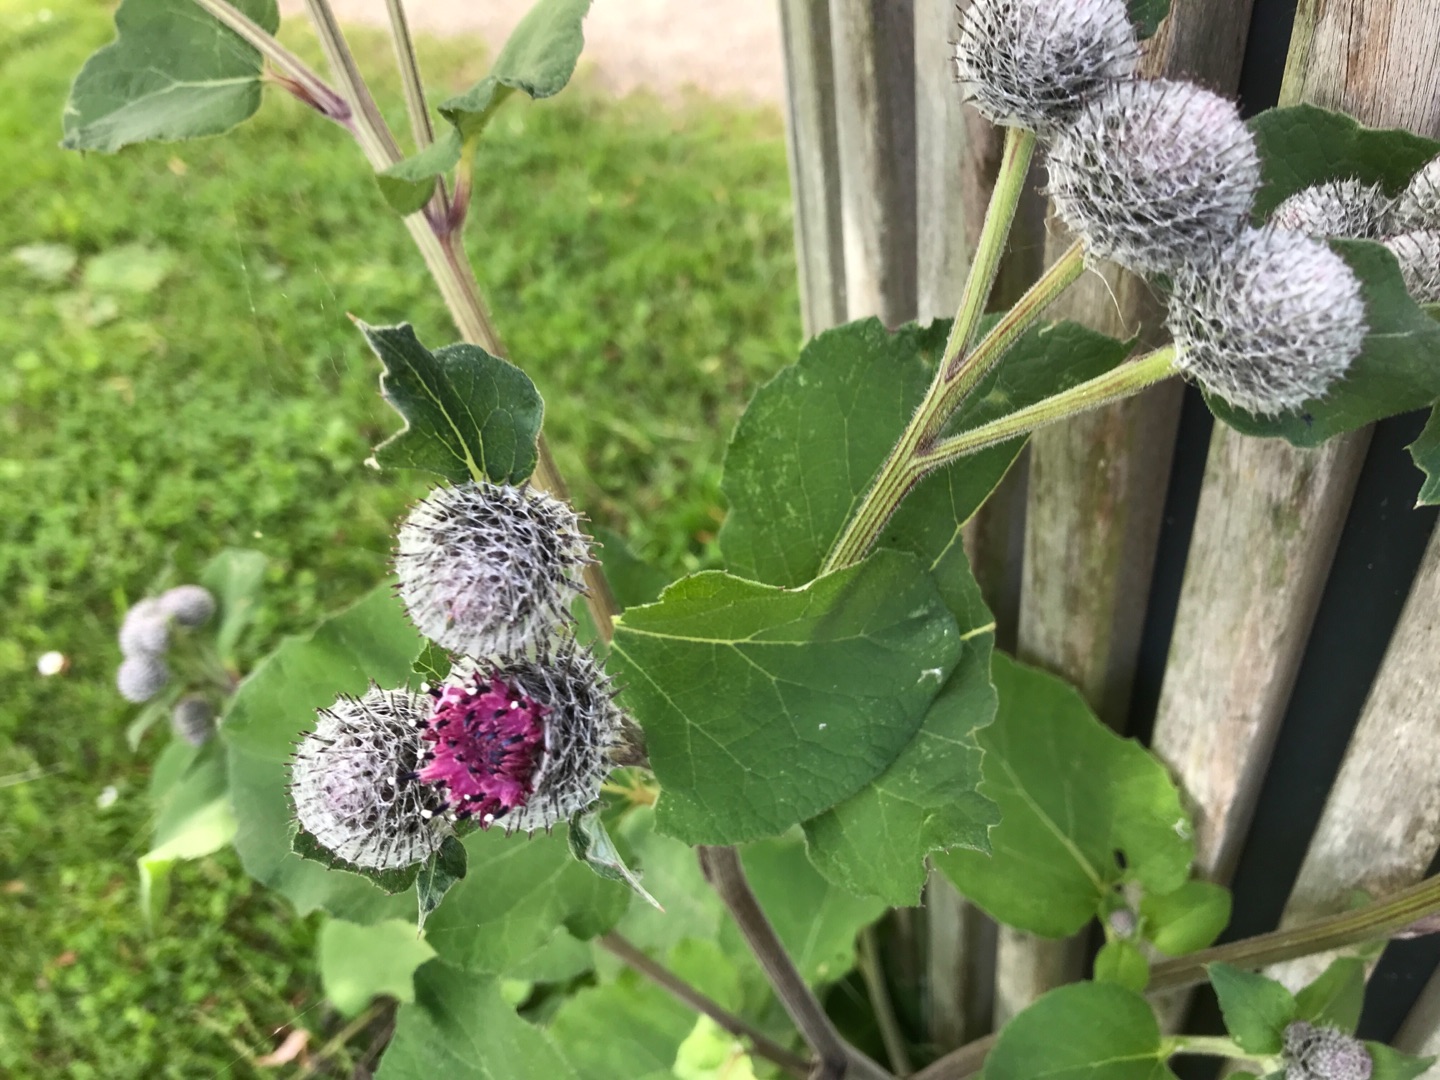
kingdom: Plantae
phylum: Tracheophyta
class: Magnoliopsida
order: Asterales
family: Asteraceae
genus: Arctium
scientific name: Arctium tomentosum
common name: Filtet burre
